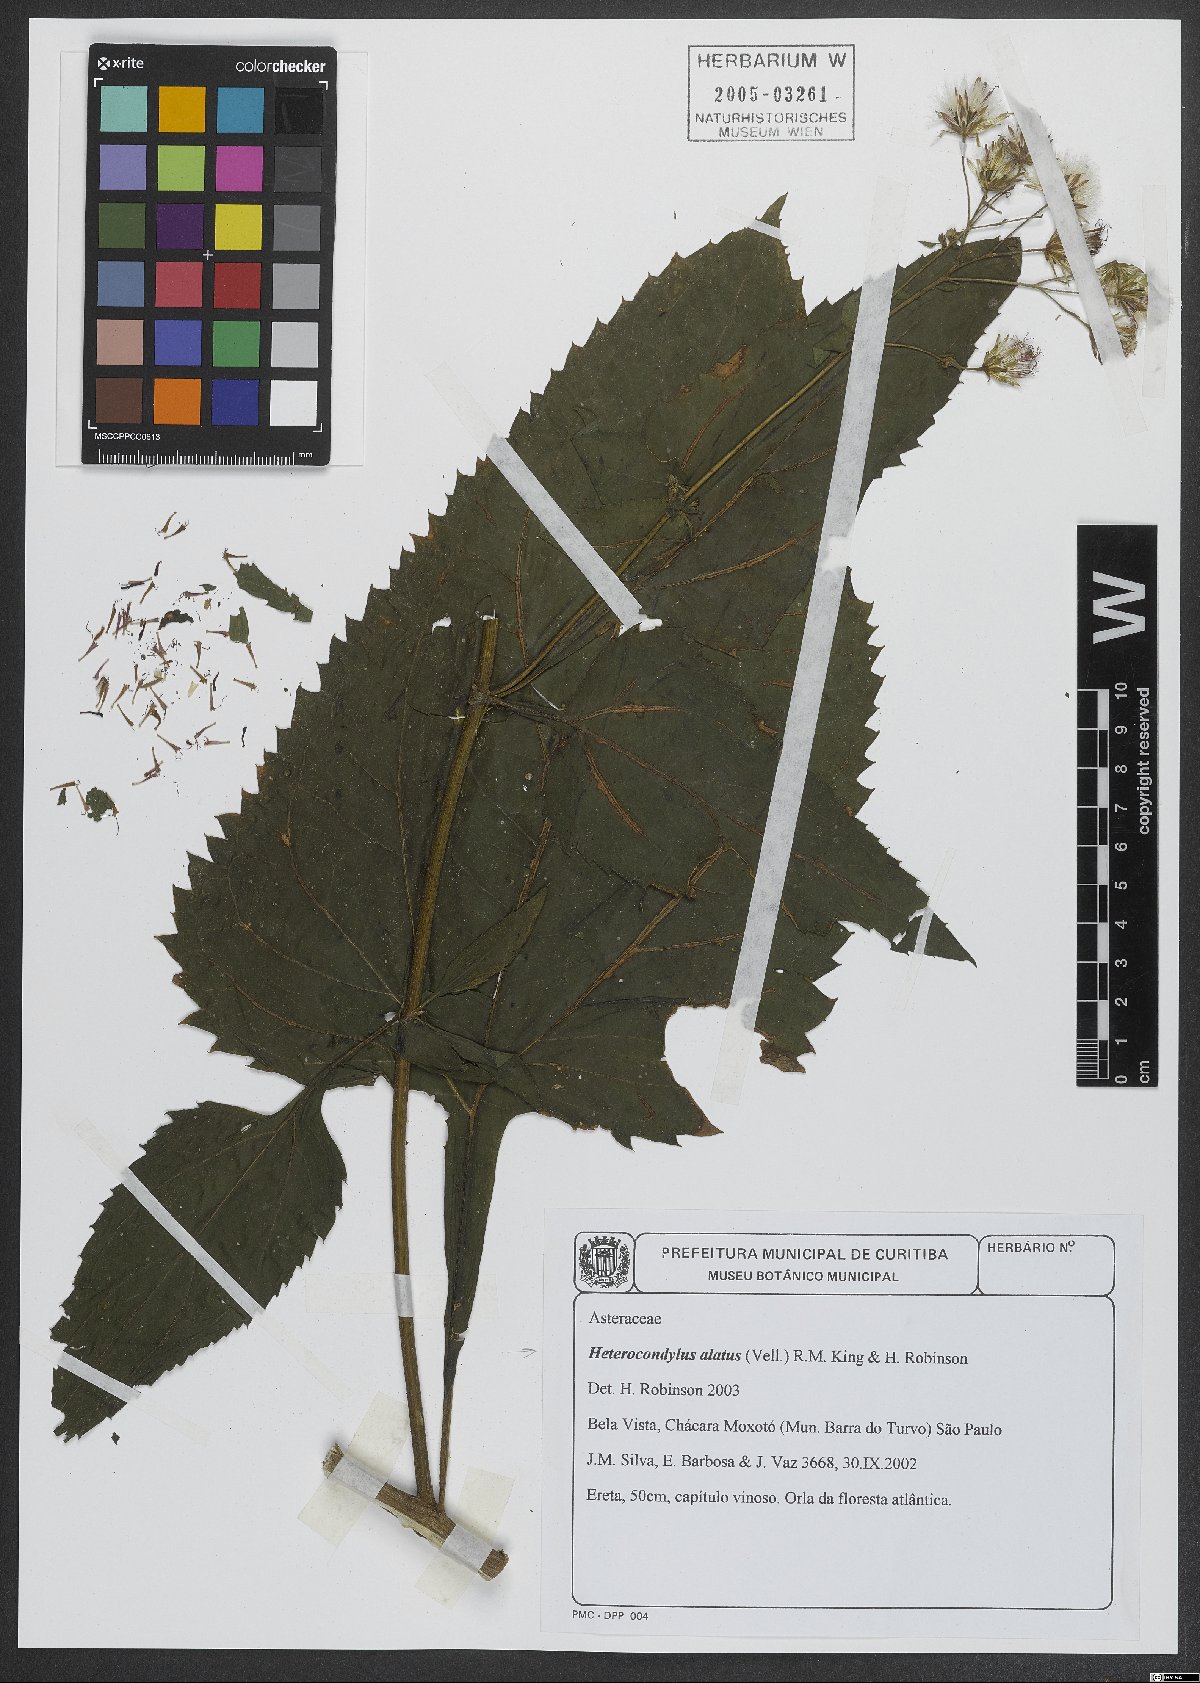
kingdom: Plantae
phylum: Tracheophyta
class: Magnoliopsida
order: Asterales
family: Asteraceae
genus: Heterocondylus
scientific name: Heterocondylus alatus
